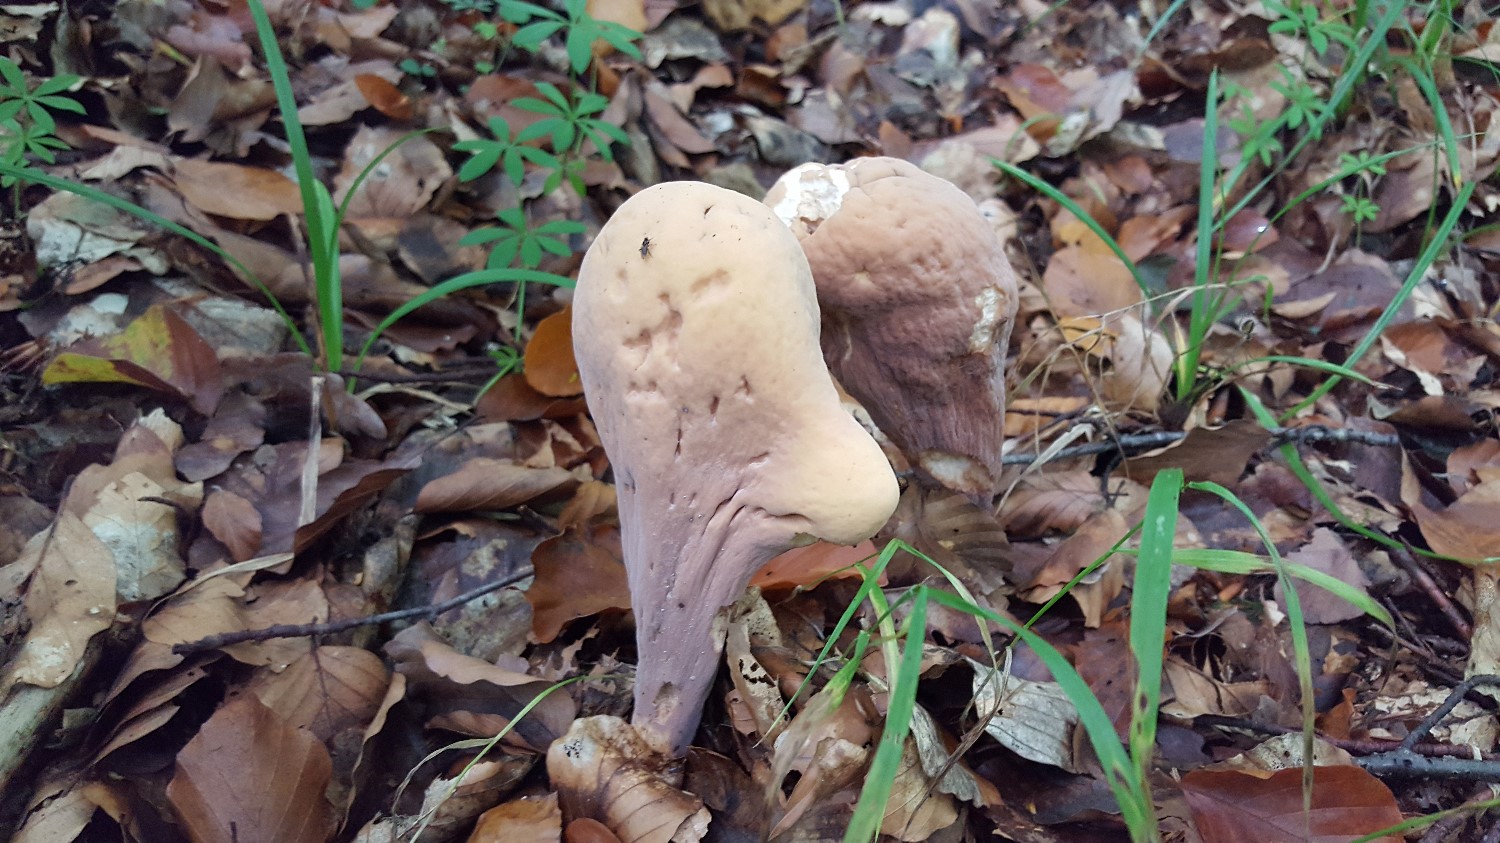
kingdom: Fungi
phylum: Basidiomycota
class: Agaricomycetes
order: Gomphales
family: Clavariadelphaceae
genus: Clavariadelphus
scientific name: Clavariadelphus pistillaris
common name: herkules-kæmpekølle
